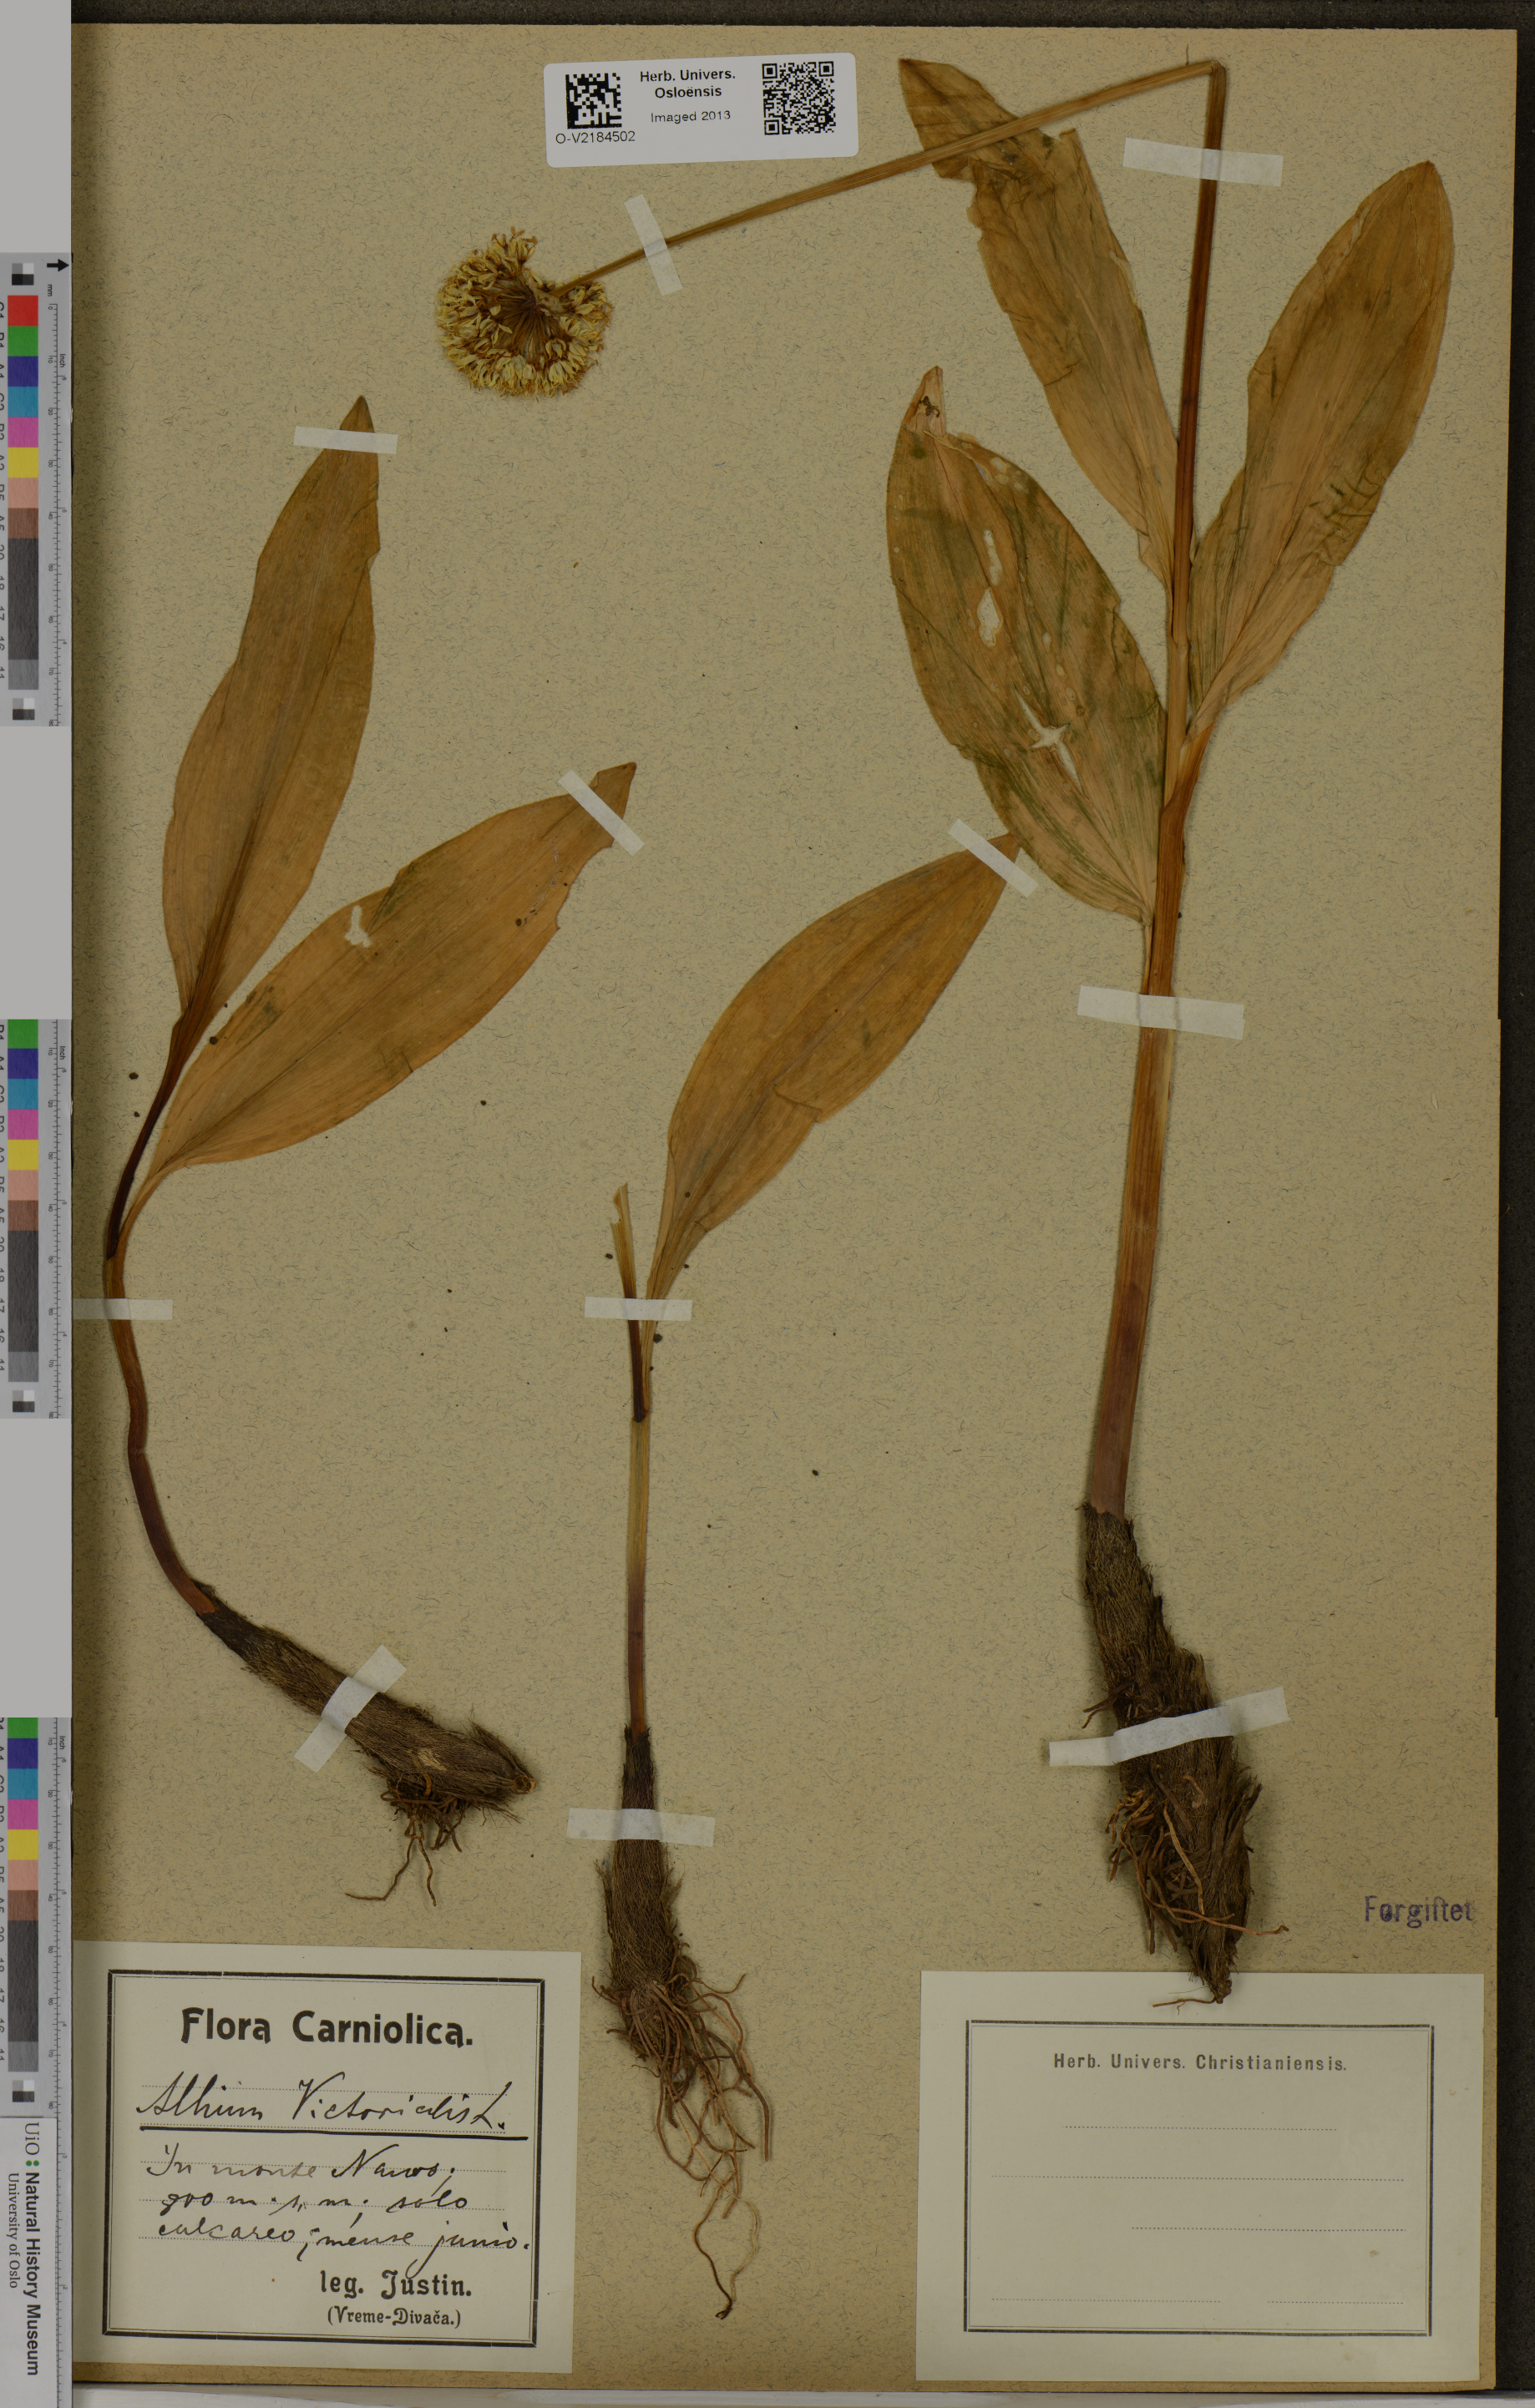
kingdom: Plantae
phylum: Tracheophyta
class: Liliopsida
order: Asparagales
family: Amaryllidaceae
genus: Allium
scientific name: Allium victorialis
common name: Alpine leek
